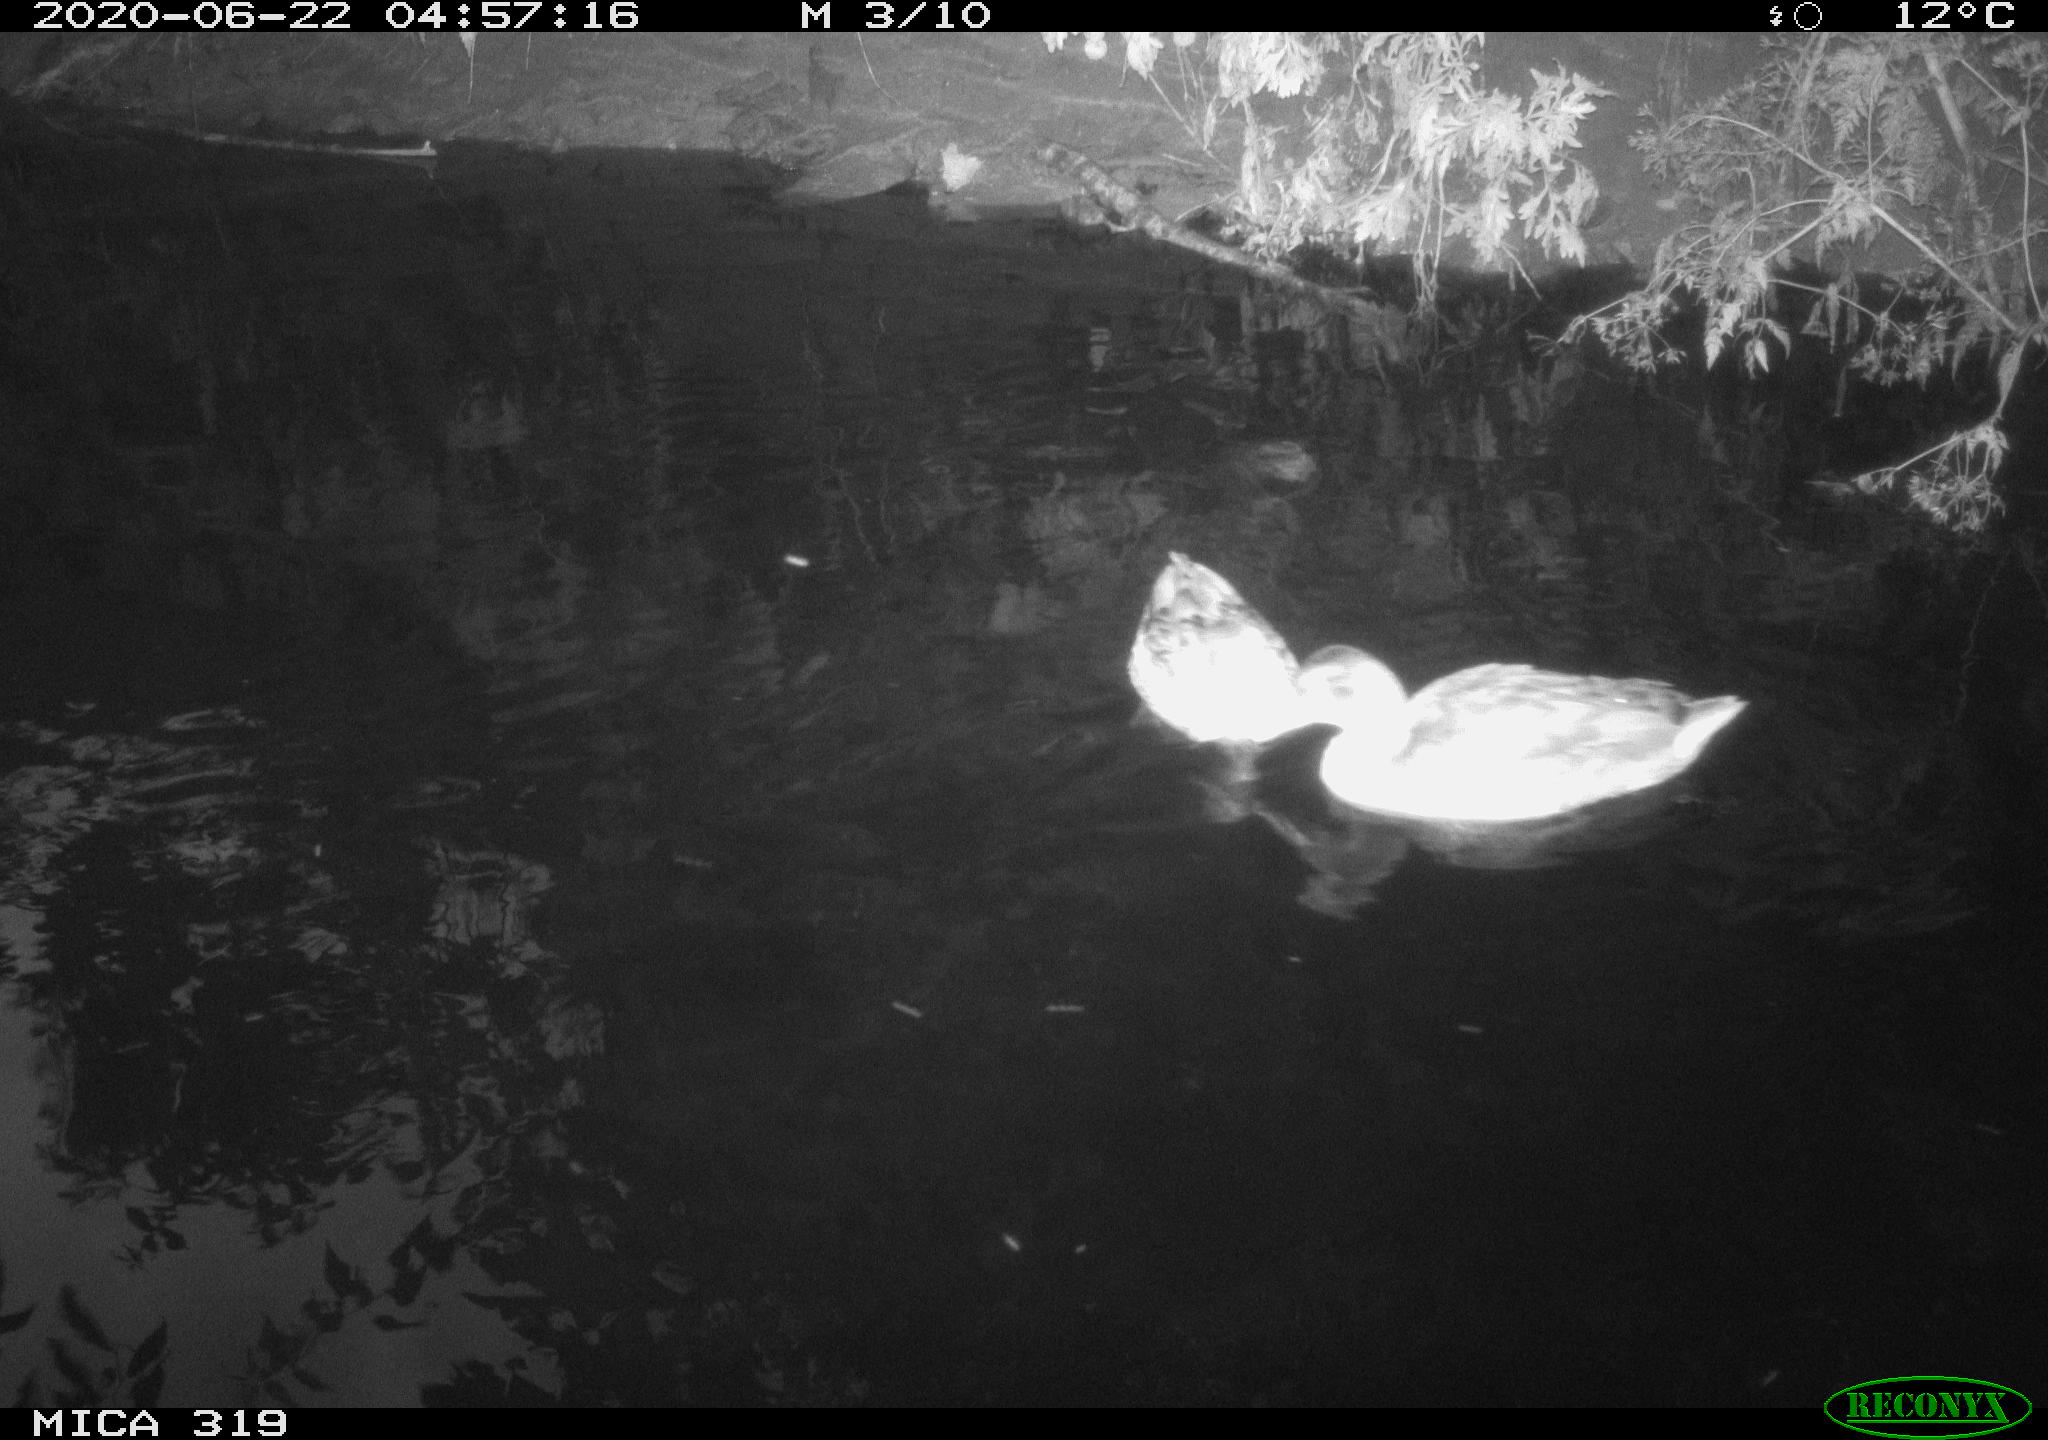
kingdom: Animalia
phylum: Chordata
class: Aves
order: Anseriformes
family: Anatidae
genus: Anas
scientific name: Anas platyrhynchos
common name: Mallard
